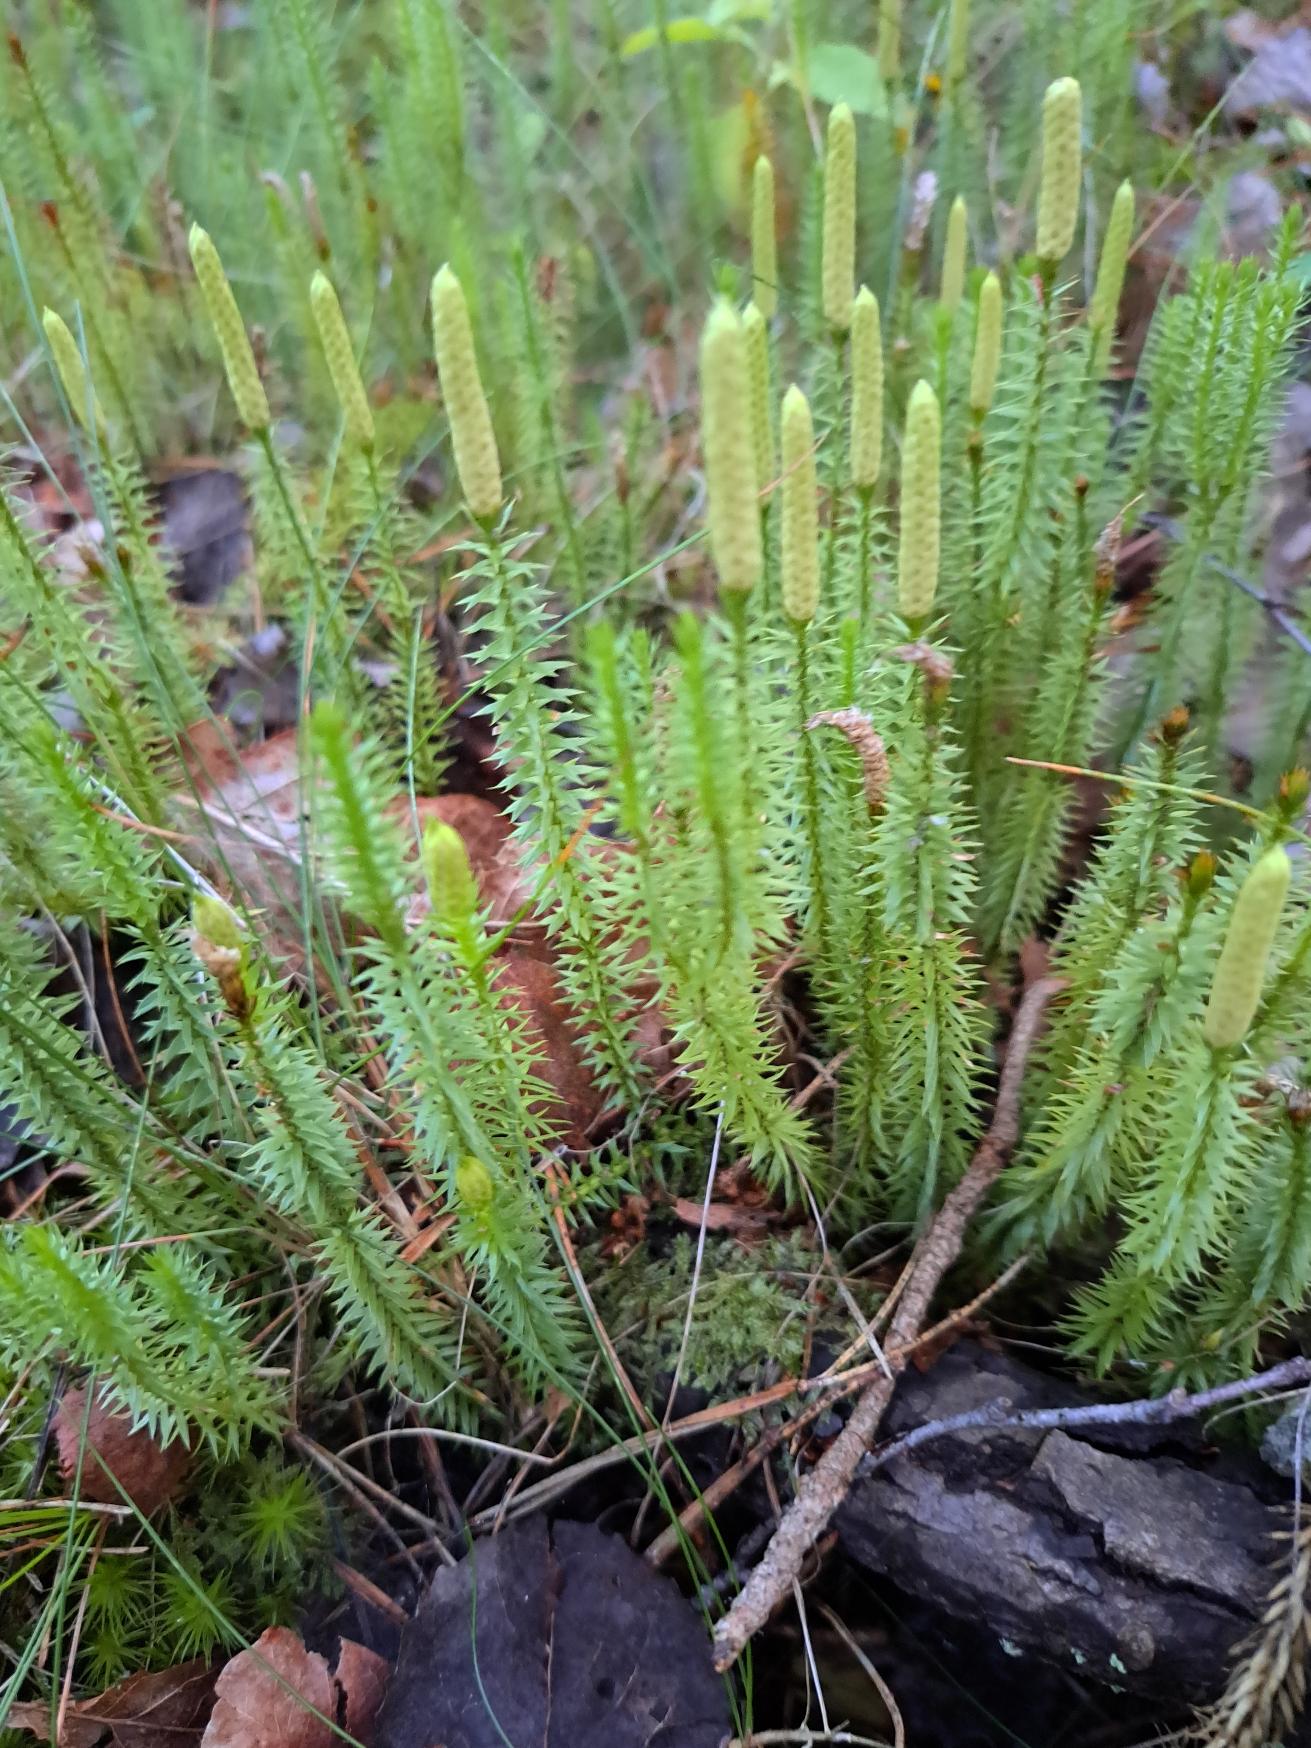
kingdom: Plantae
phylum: Tracheophyta
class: Lycopodiopsida
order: Lycopodiales
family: Lycopodiaceae
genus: Spinulum
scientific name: Spinulum annotinum
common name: Femradet ulvefod
